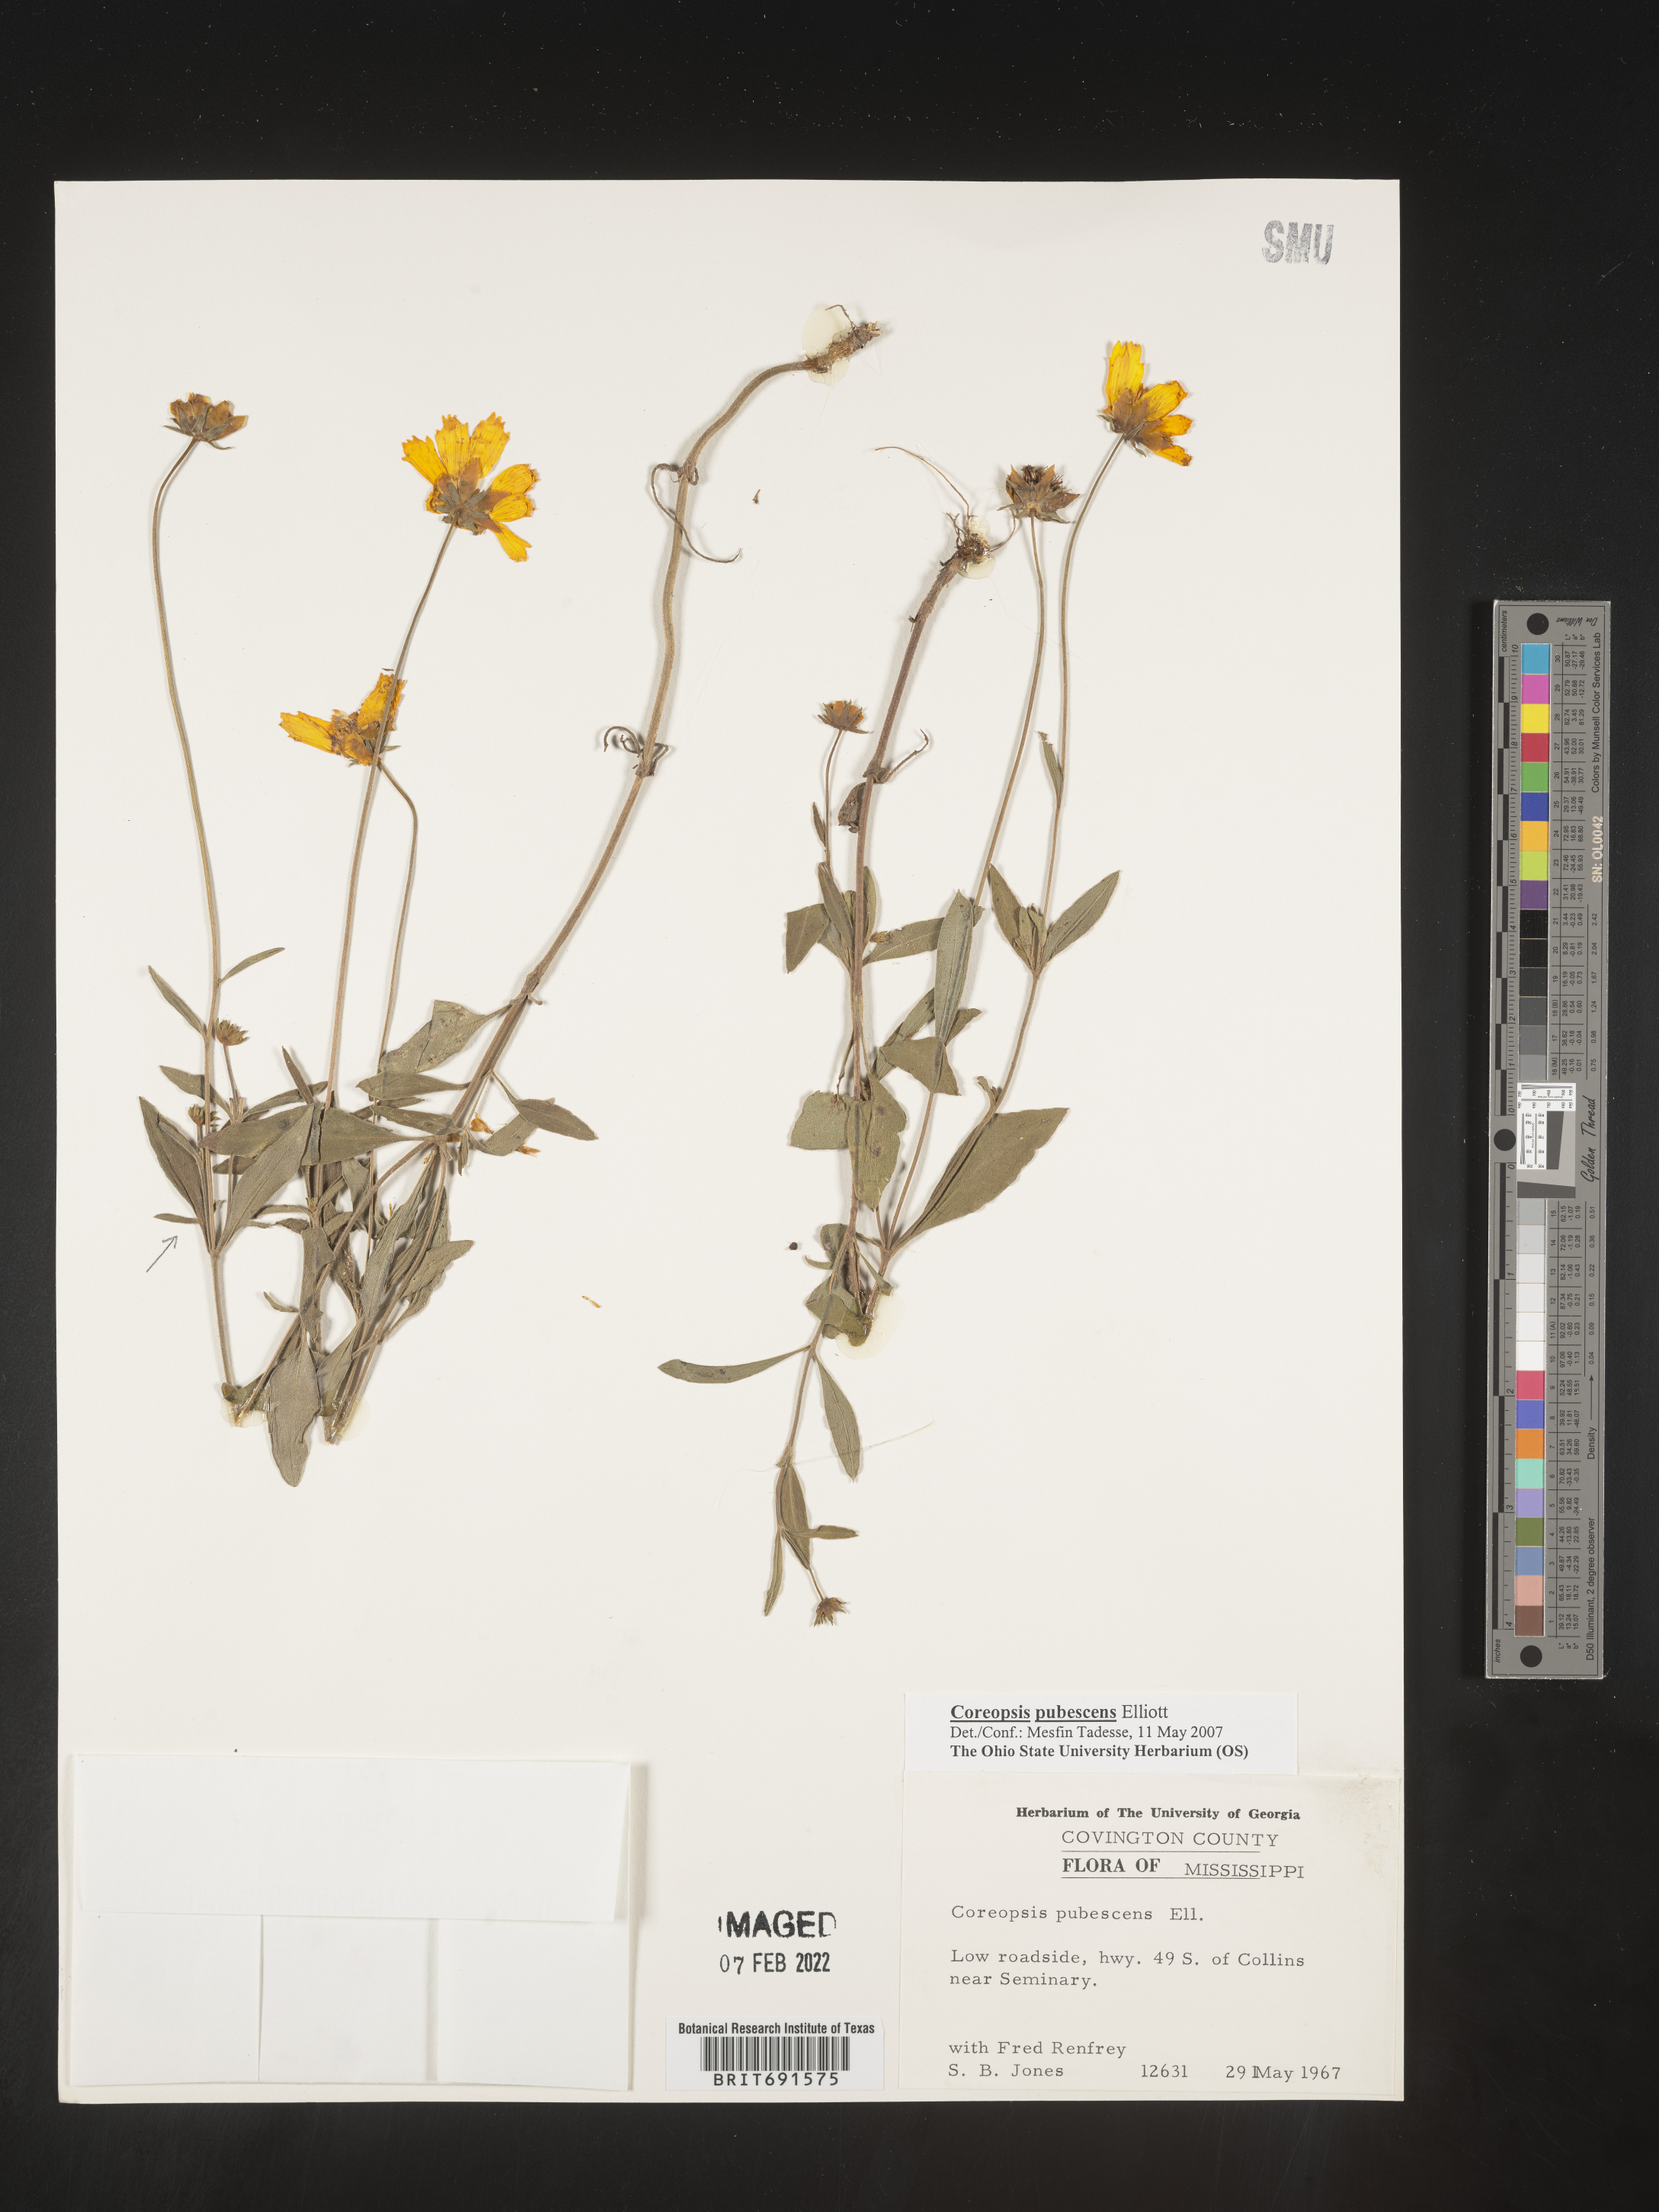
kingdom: Plantae
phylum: Tracheophyta
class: Magnoliopsida
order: Asterales
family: Asteraceae
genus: Coreopsis
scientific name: Coreopsis pubescens
